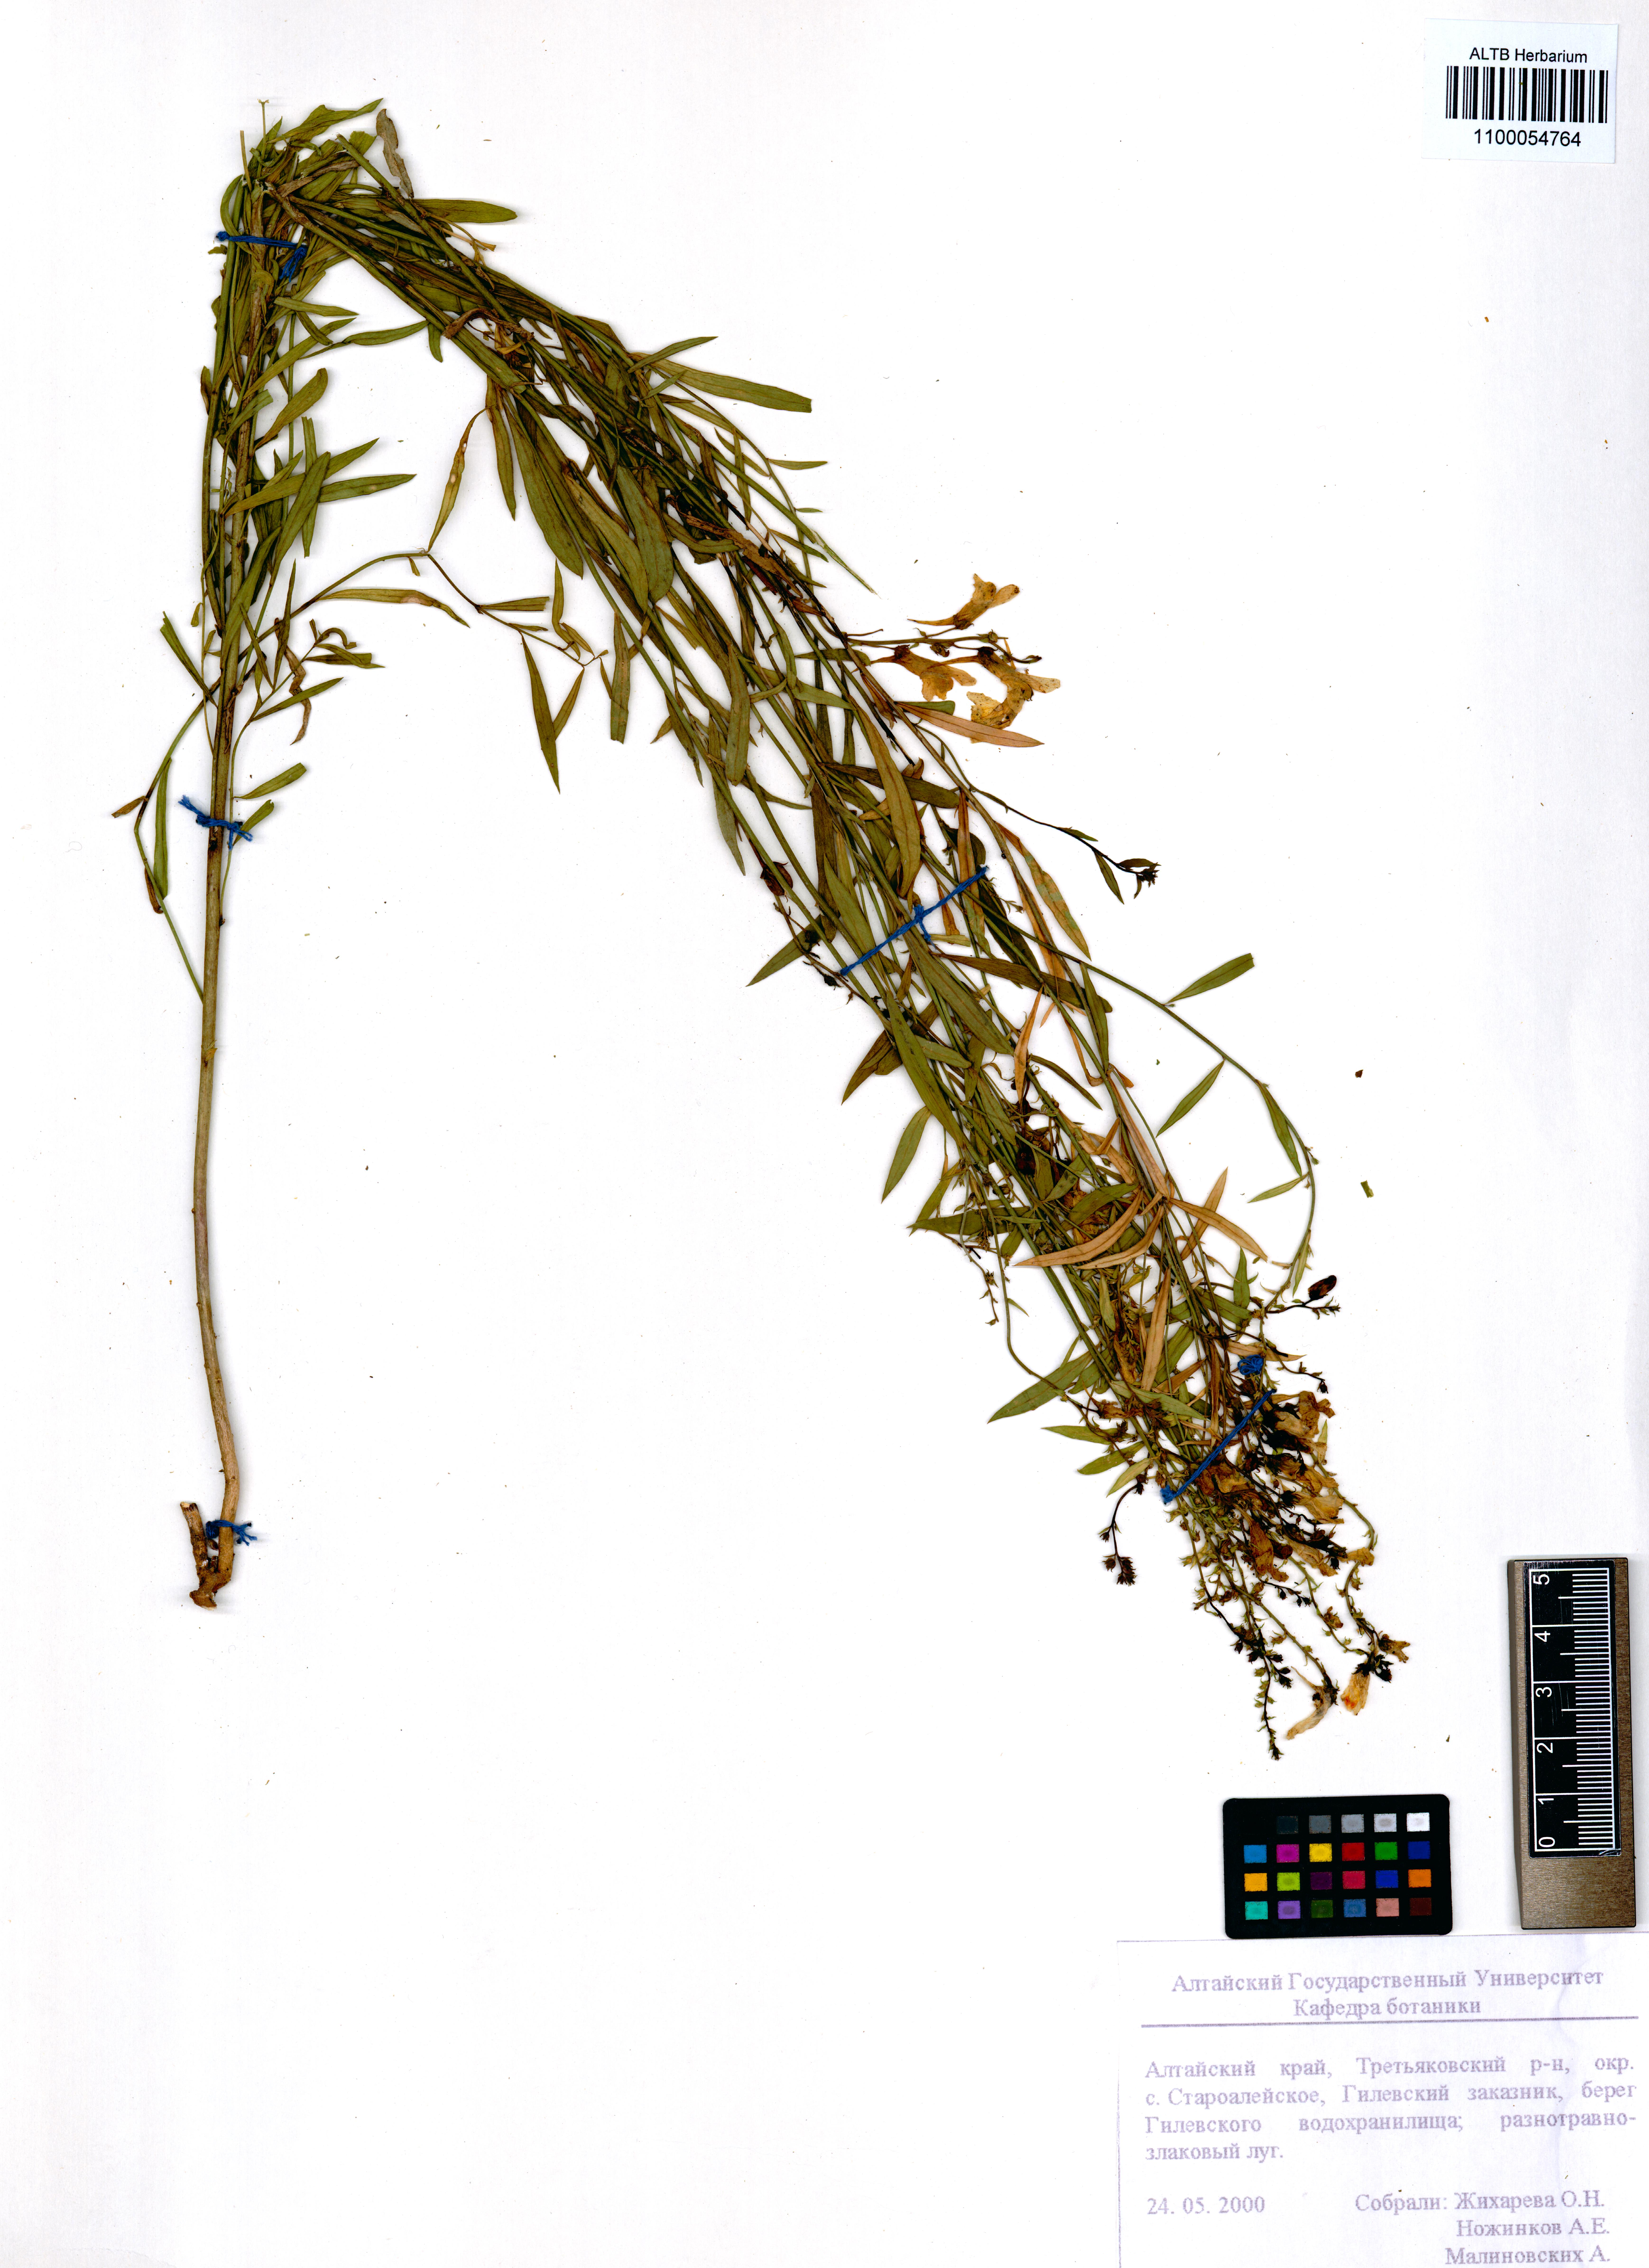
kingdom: Plantae
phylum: Tracheophyta
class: Magnoliopsida
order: Lamiales
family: Plantaginaceae
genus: Linaria
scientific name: Linaria vulgaris
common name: Butter and eggs
